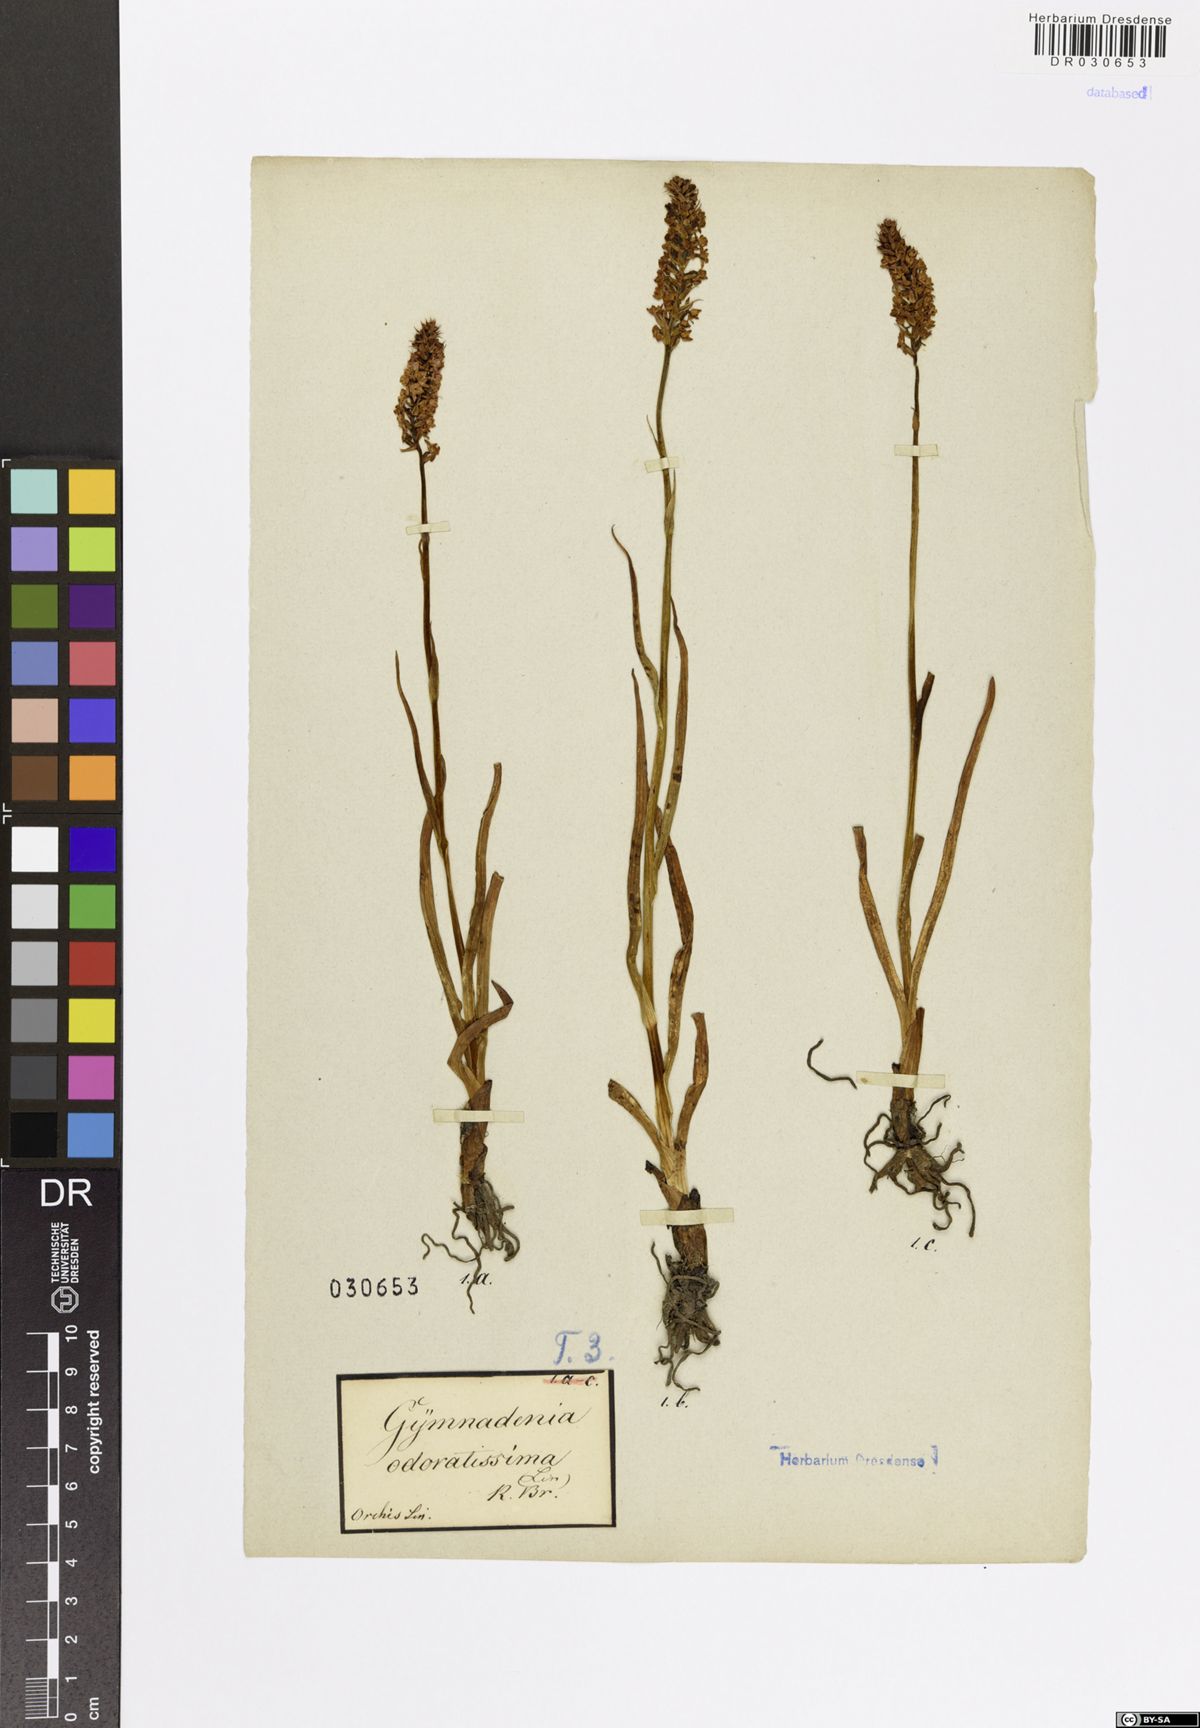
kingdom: Plantae
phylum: Tracheophyta
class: Liliopsida
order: Asparagales
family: Orchidaceae
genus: Gymnadenia
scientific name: Gymnadenia odoratissima
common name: Scented gymnadenia
